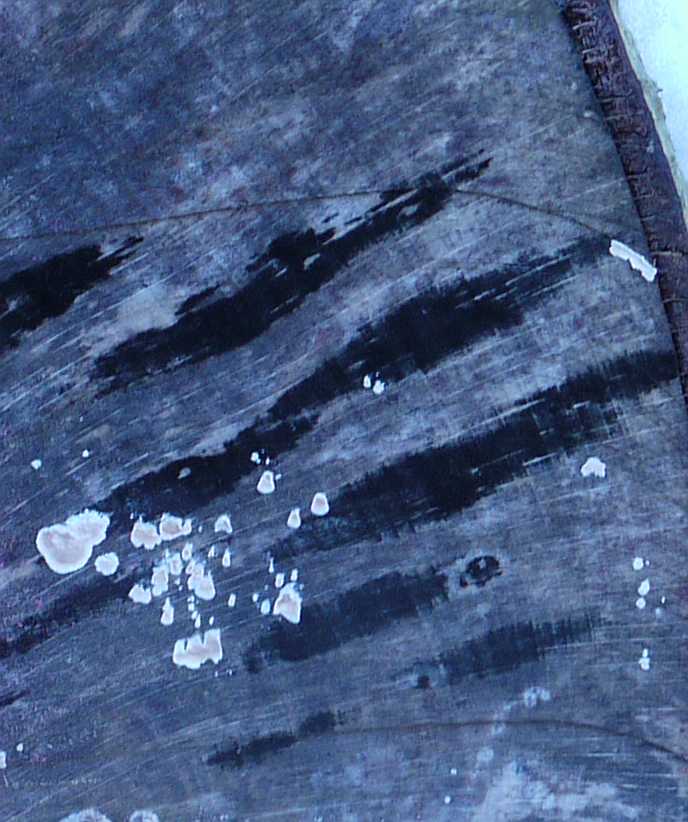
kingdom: Fungi
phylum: Ascomycota
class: Leotiomycetes
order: Helotiales
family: Helotiaceae
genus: Bispora
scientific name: Bispora pallescens
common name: måtte-snitskive
